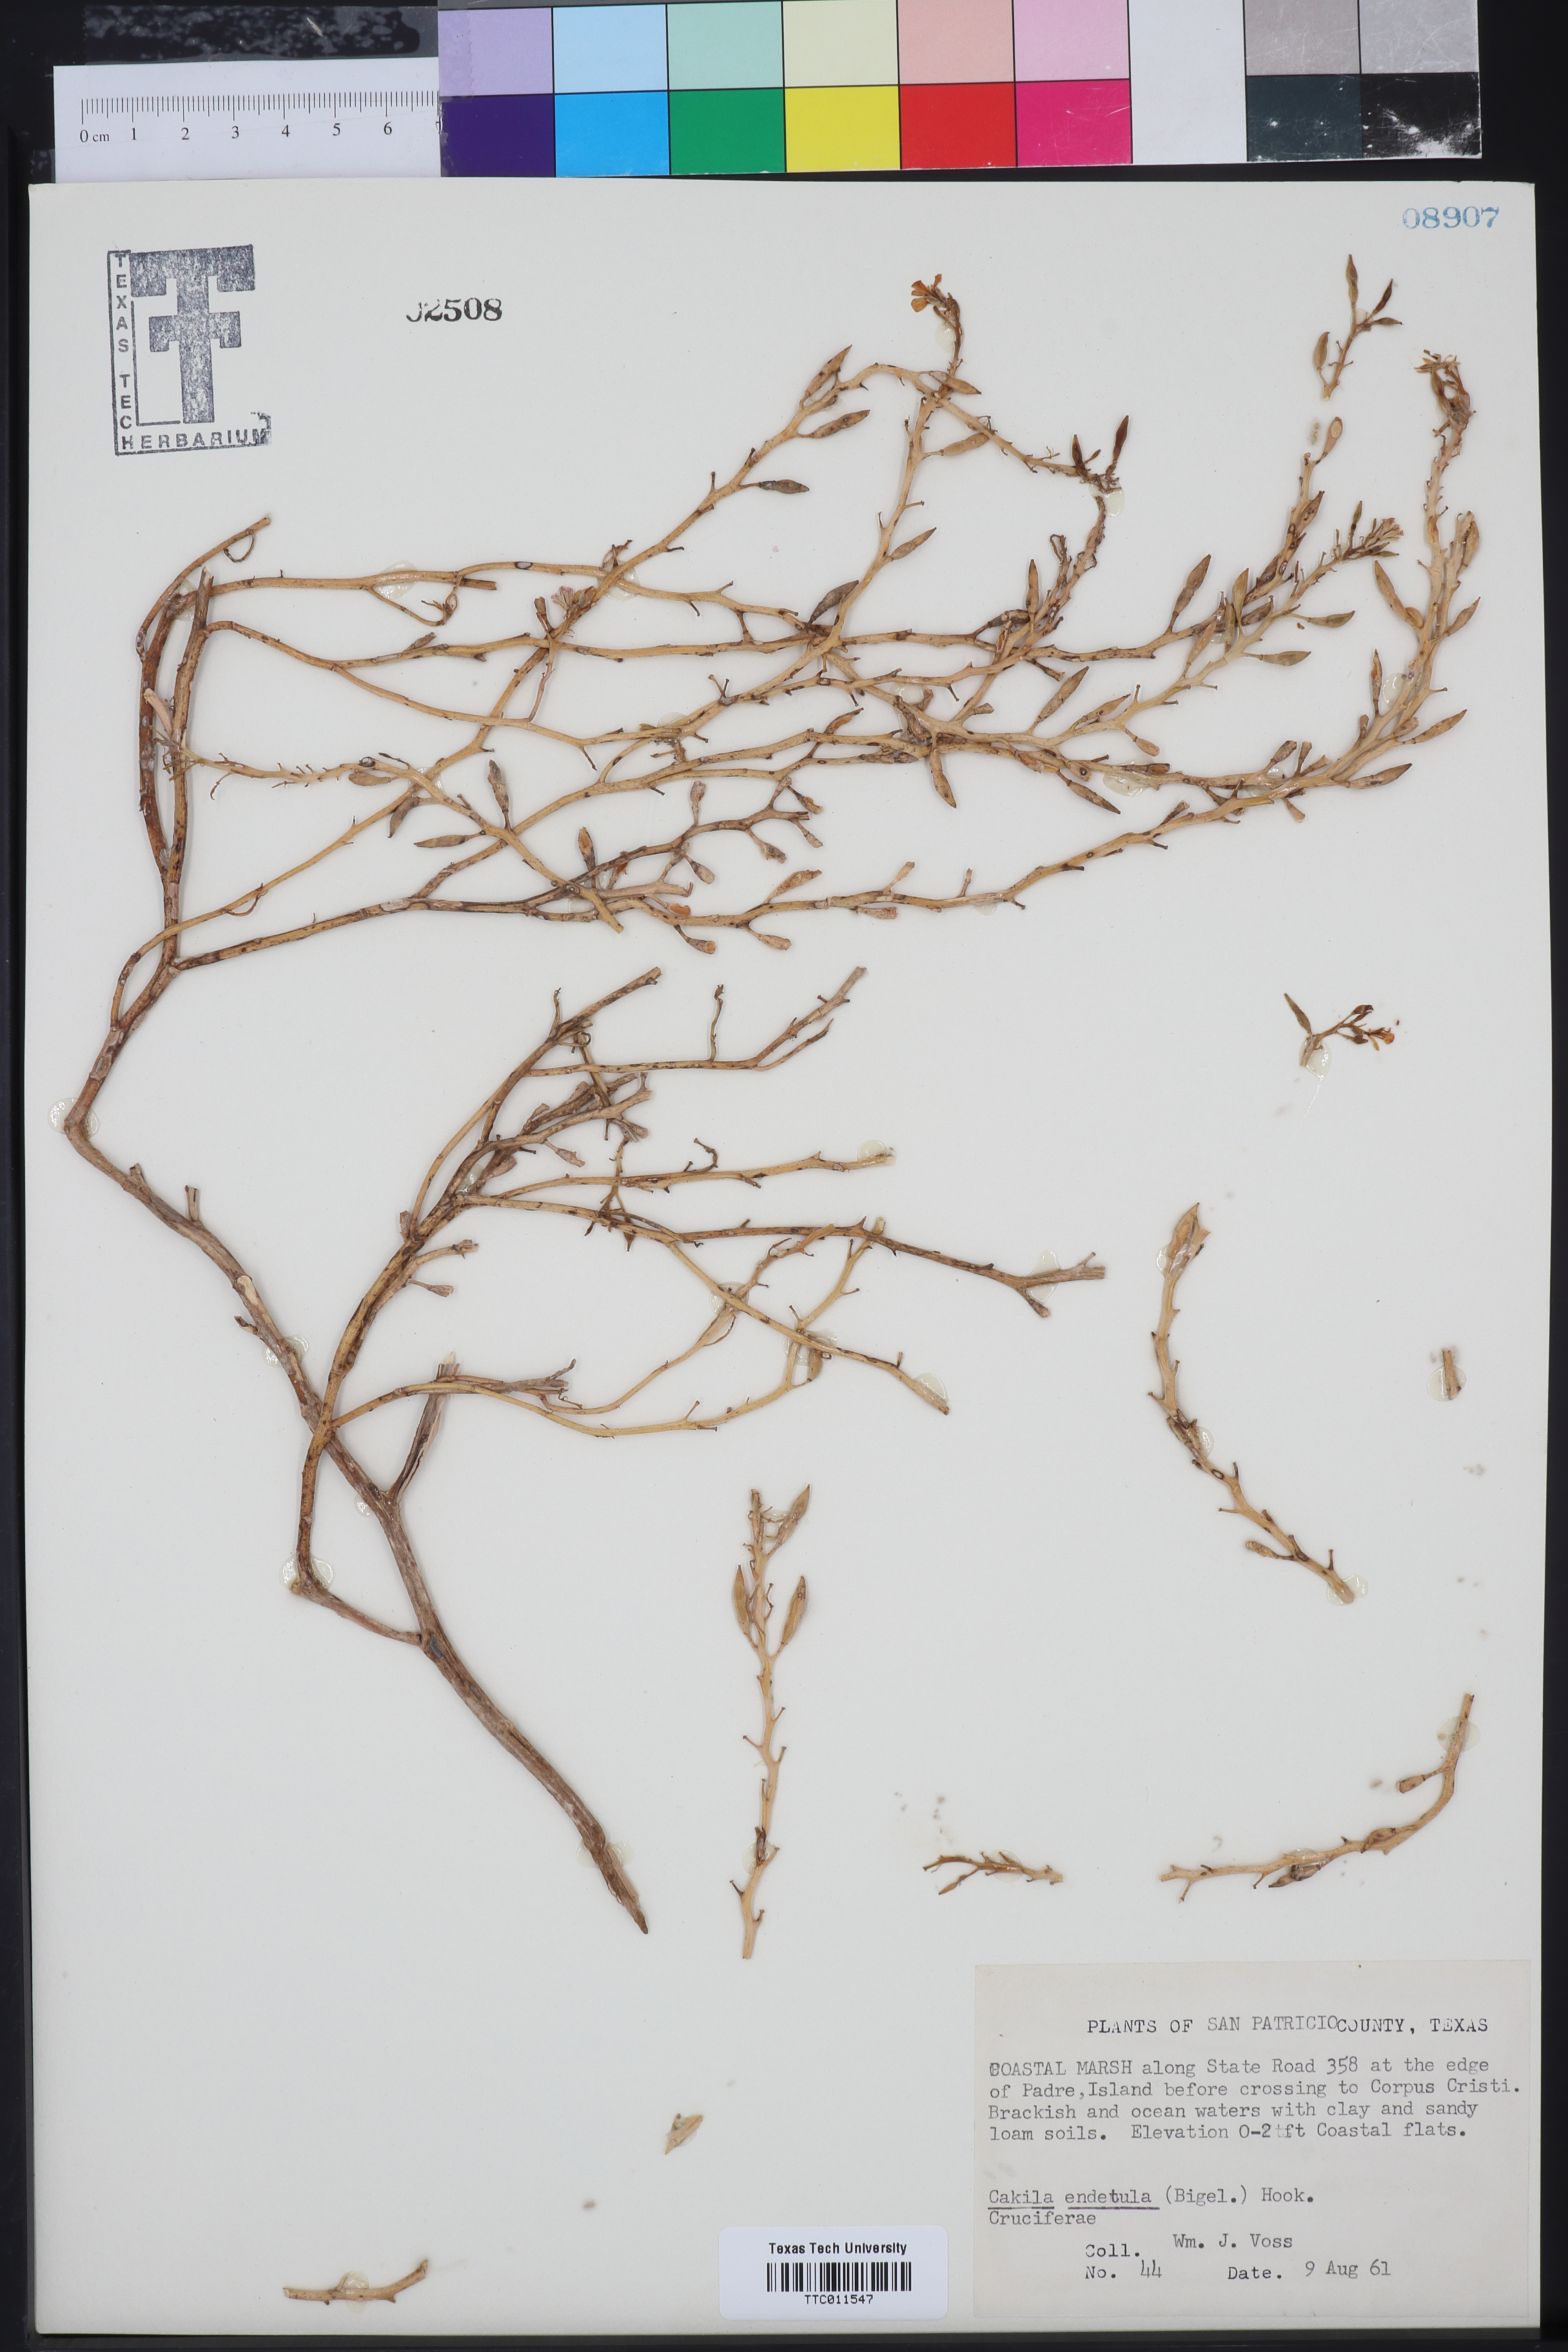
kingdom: Plantae
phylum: Tracheophyta
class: Magnoliopsida
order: Brassicales
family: Brassicaceae
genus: Cakile
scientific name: Cakile
